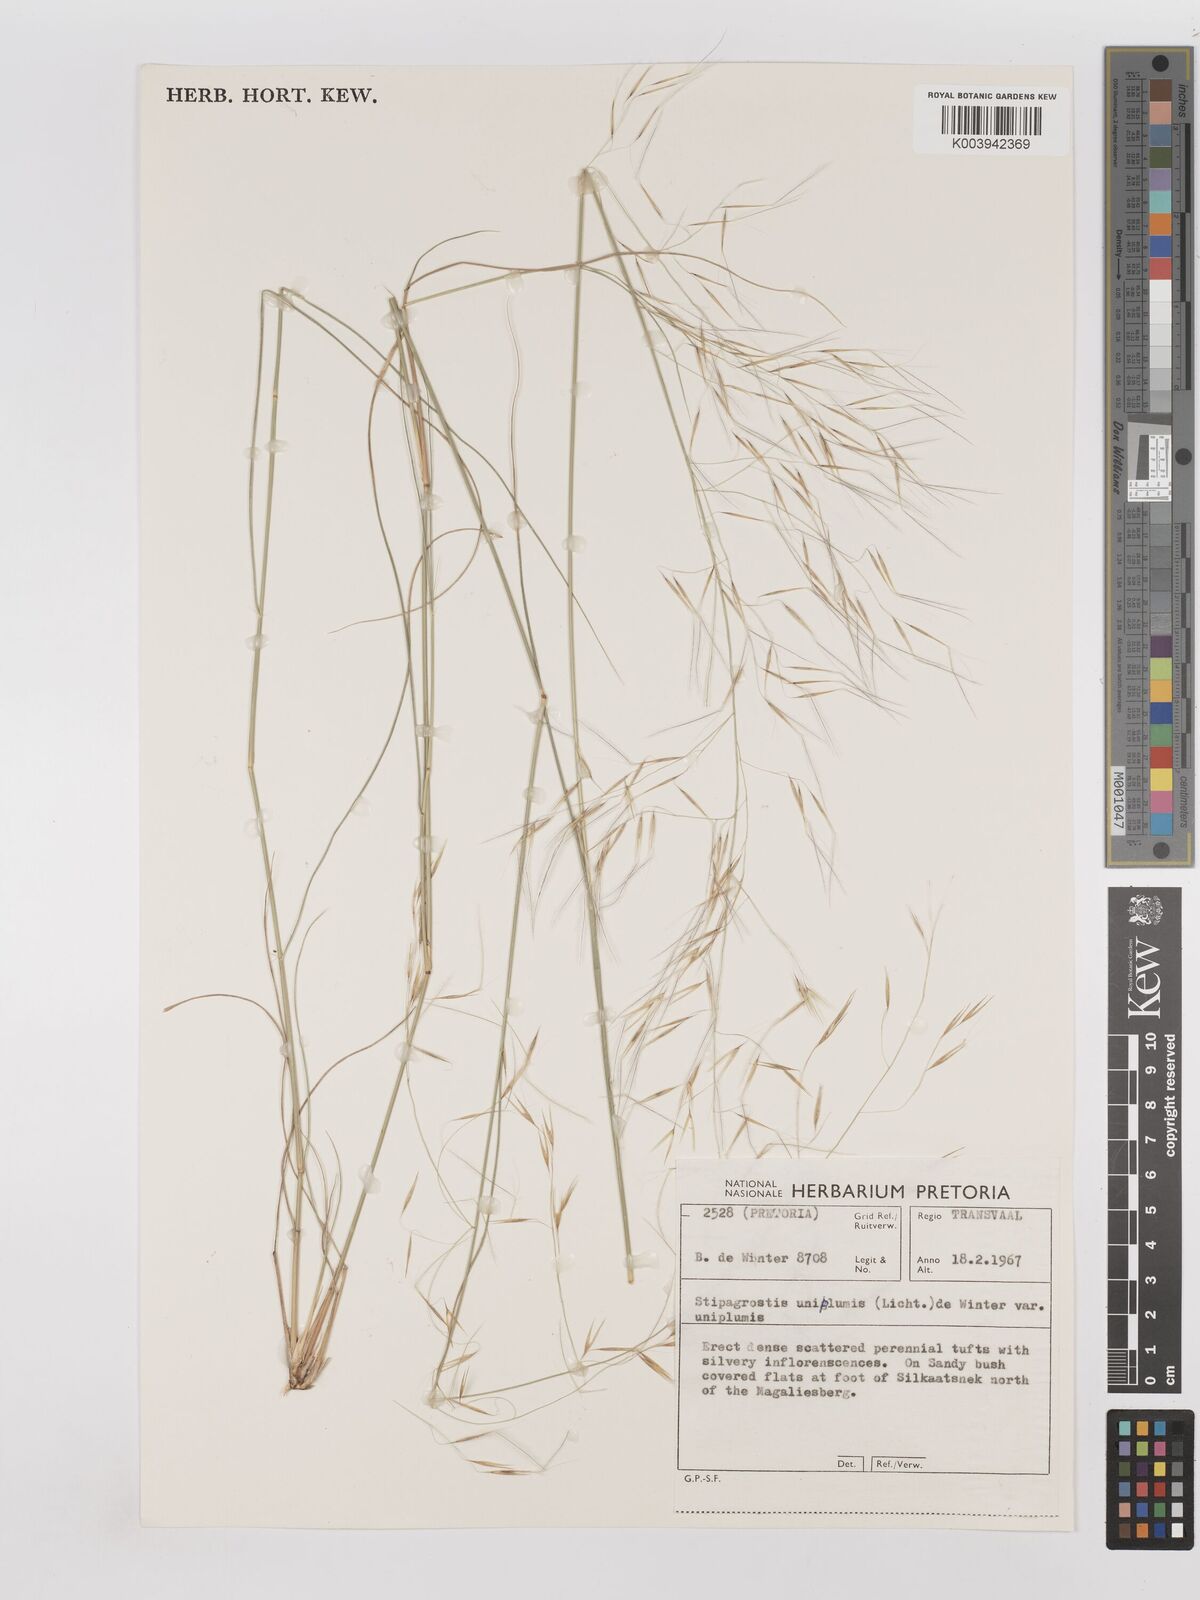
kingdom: Plantae
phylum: Tracheophyta
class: Liliopsida
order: Poales
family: Poaceae
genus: Stipagrostis
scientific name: Stipagrostis uniplumis
